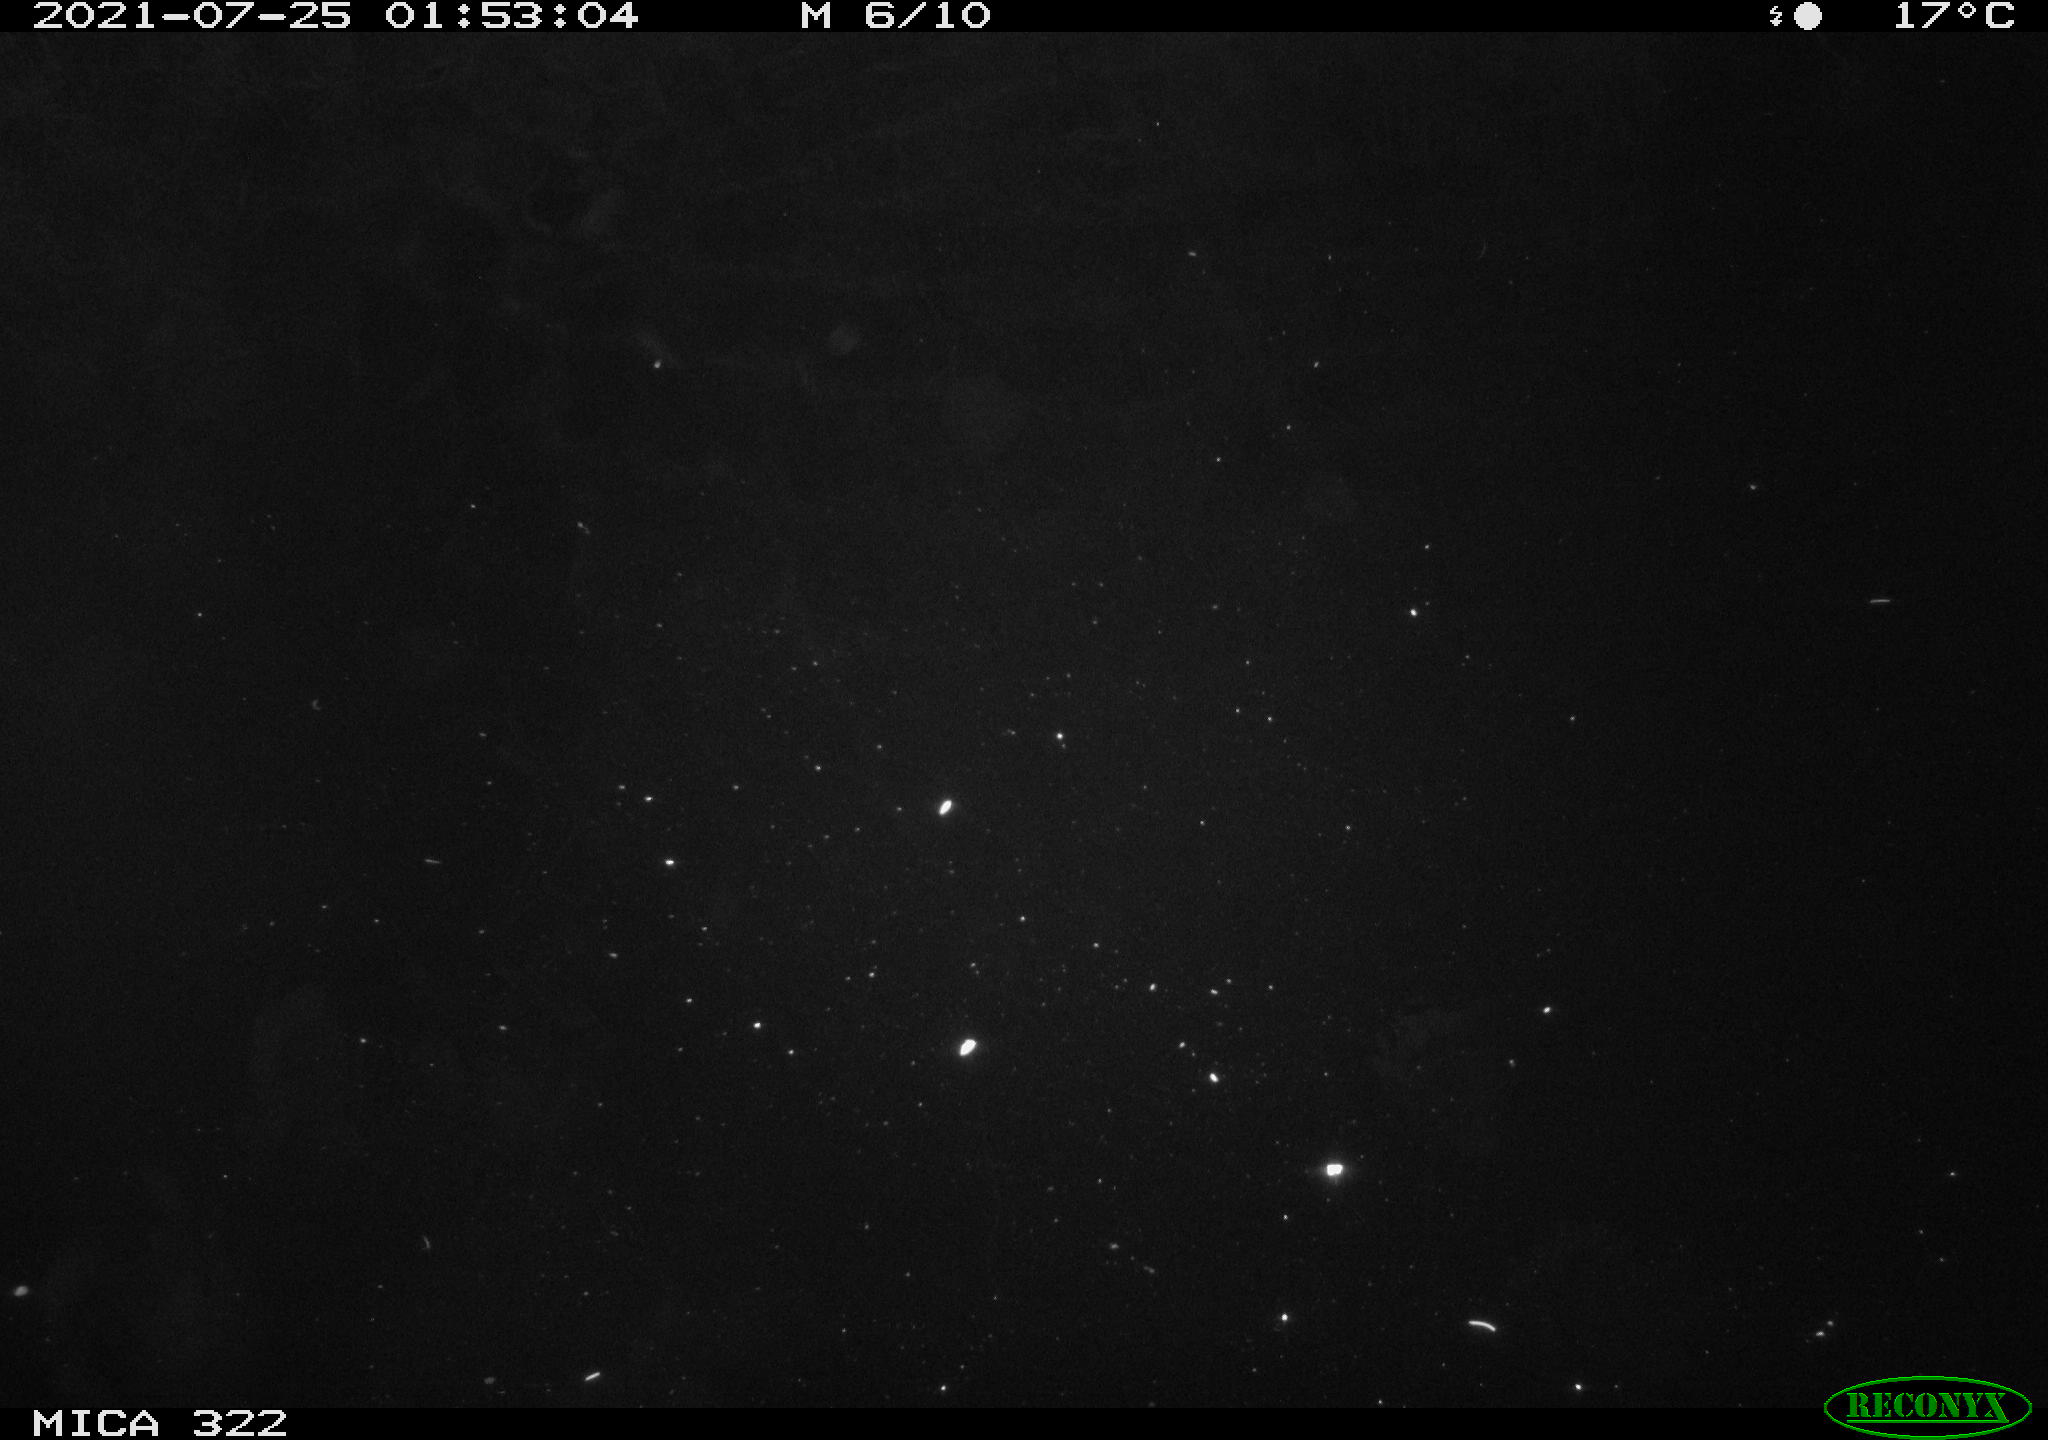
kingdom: Animalia
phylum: Chordata
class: Mammalia
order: Rodentia
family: Muridae
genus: Rattus
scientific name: Rattus norvegicus
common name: Brown rat
